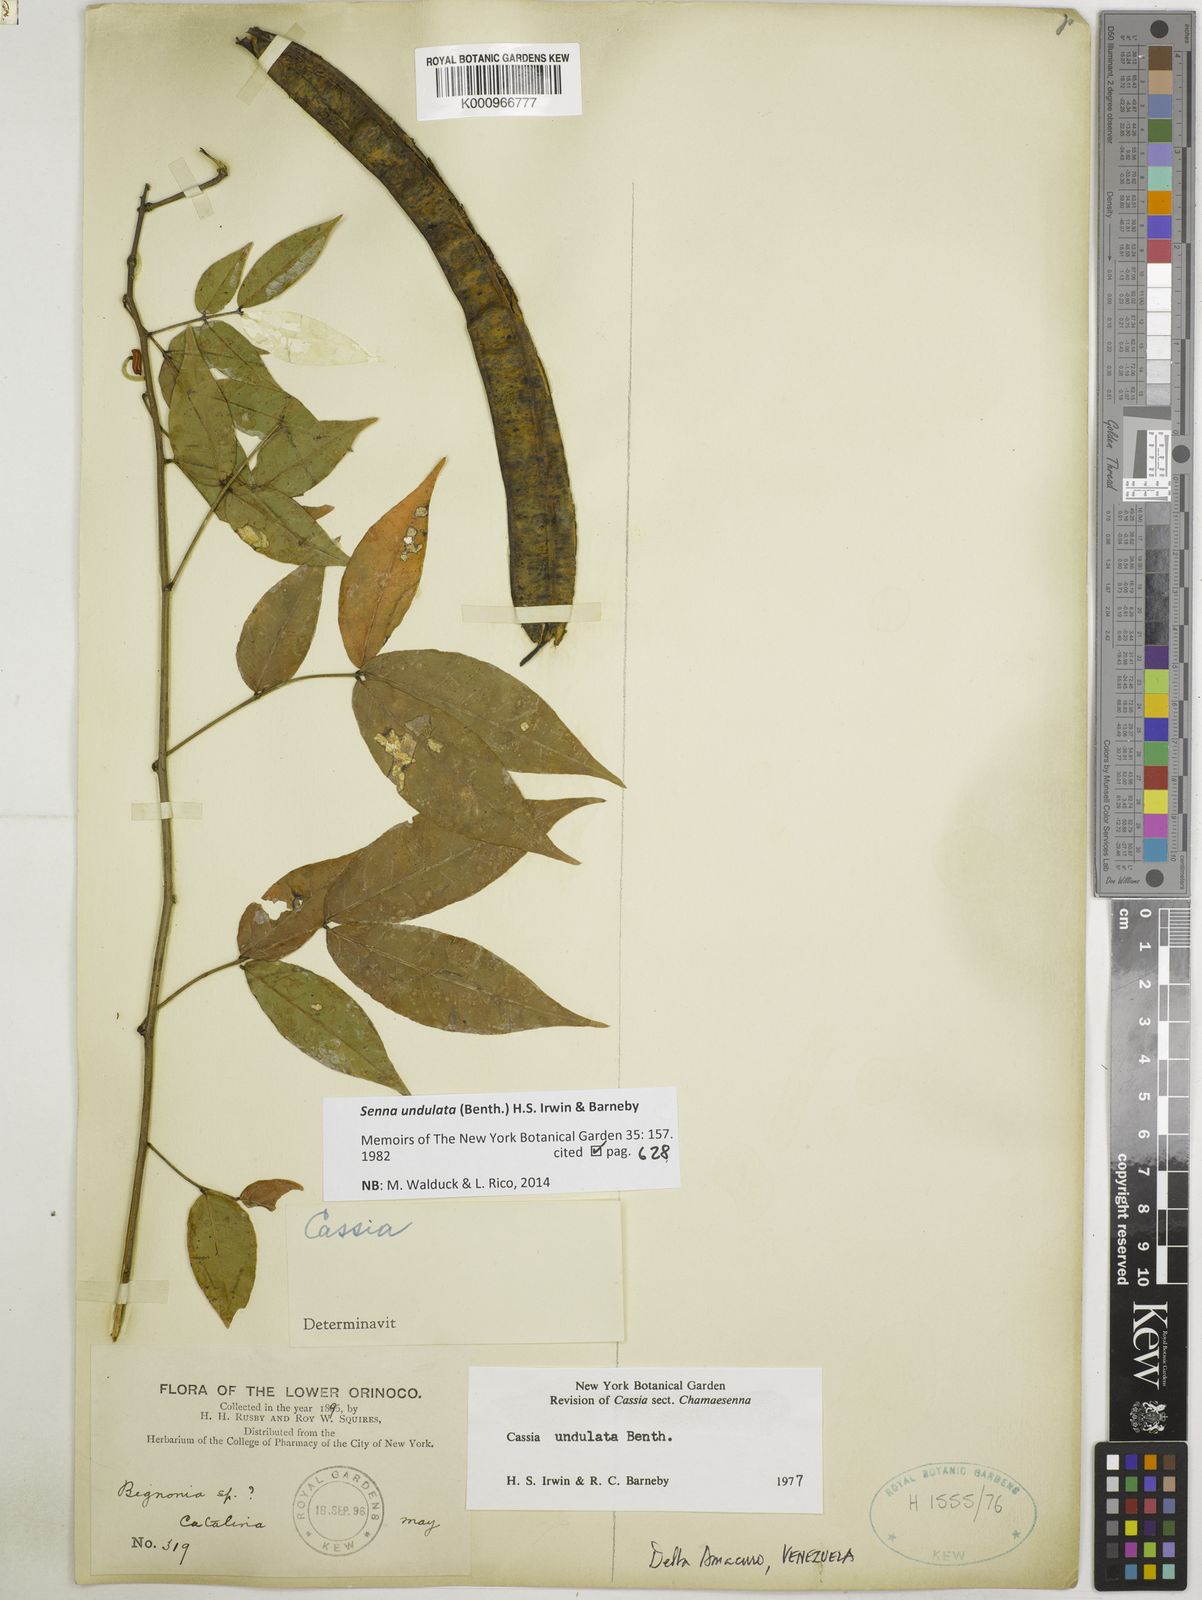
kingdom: Plantae
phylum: Tracheophyta
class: Magnoliopsida
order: Fabales
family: Fabaceae
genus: Senna
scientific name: Senna undulata
